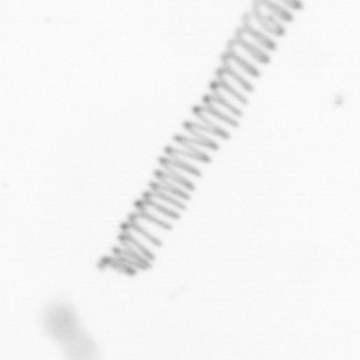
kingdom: Chromista
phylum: Ochrophyta
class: Bacillariophyceae
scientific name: Bacillariophyceae
